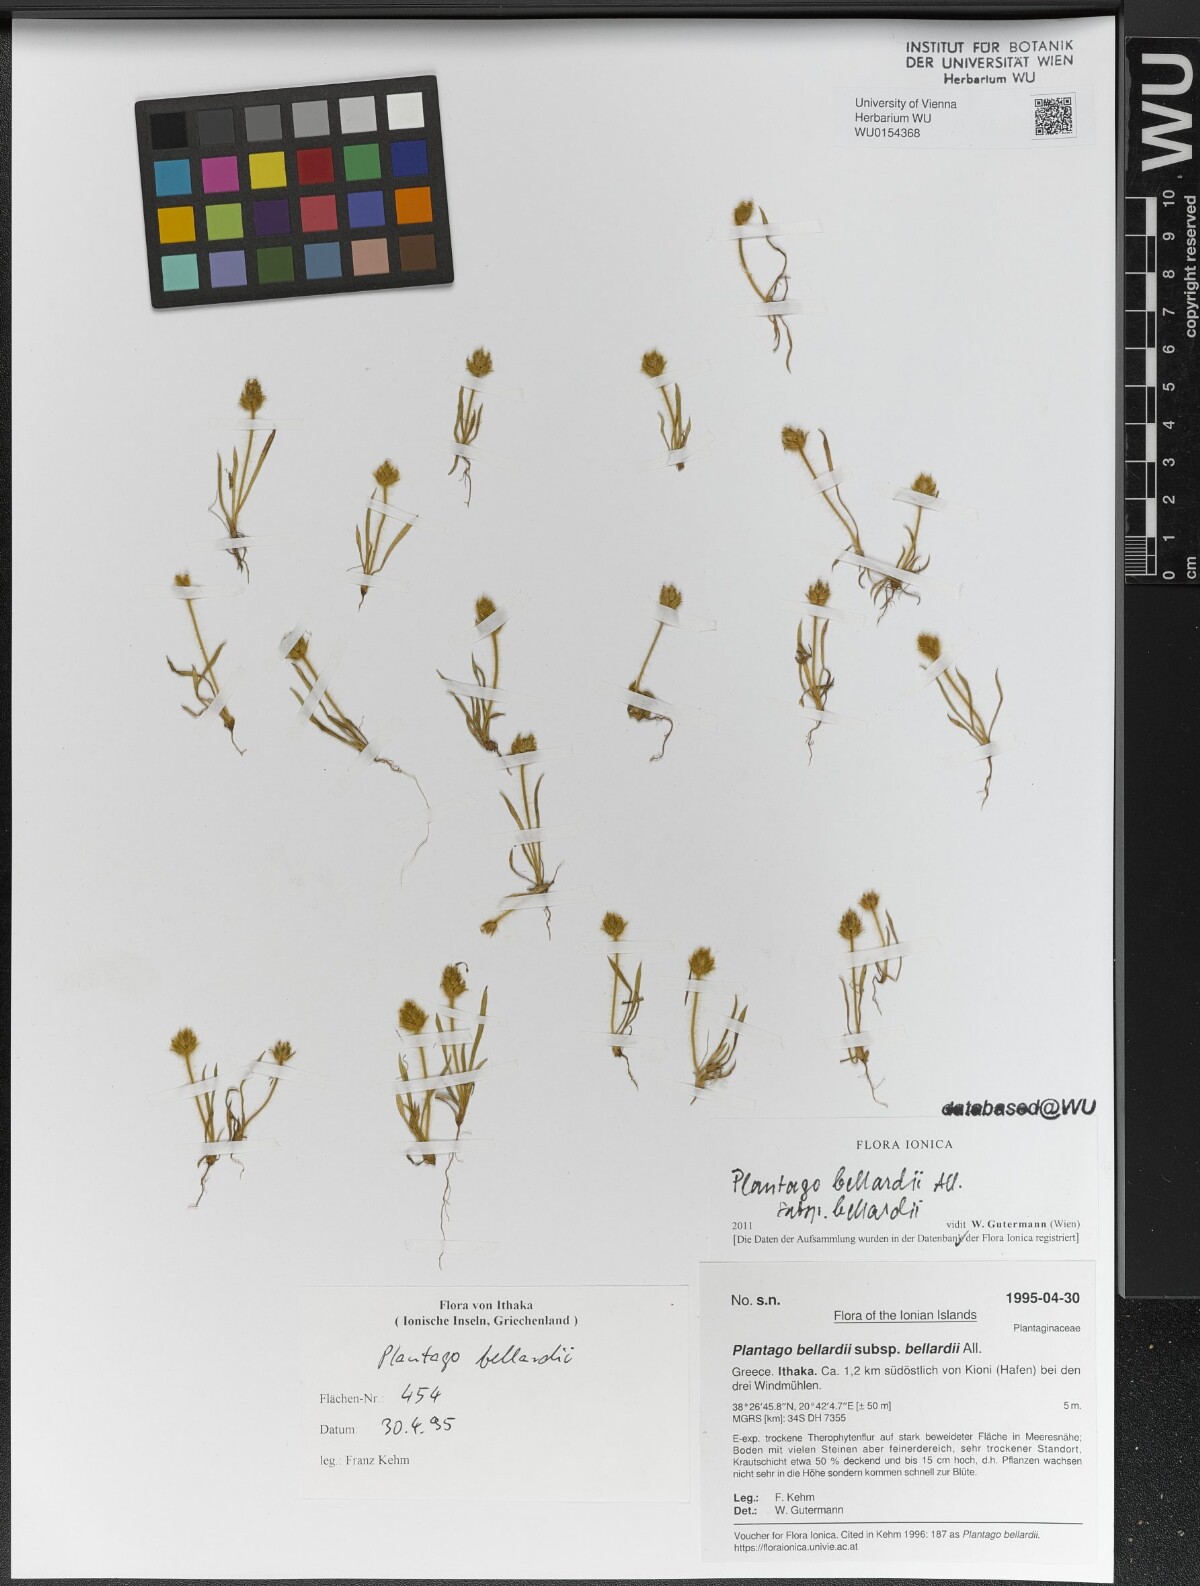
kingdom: Plantae
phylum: Tracheophyta
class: Magnoliopsida
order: Lamiales
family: Plantaginaceae
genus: Plantago
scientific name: Plantago bellardii
